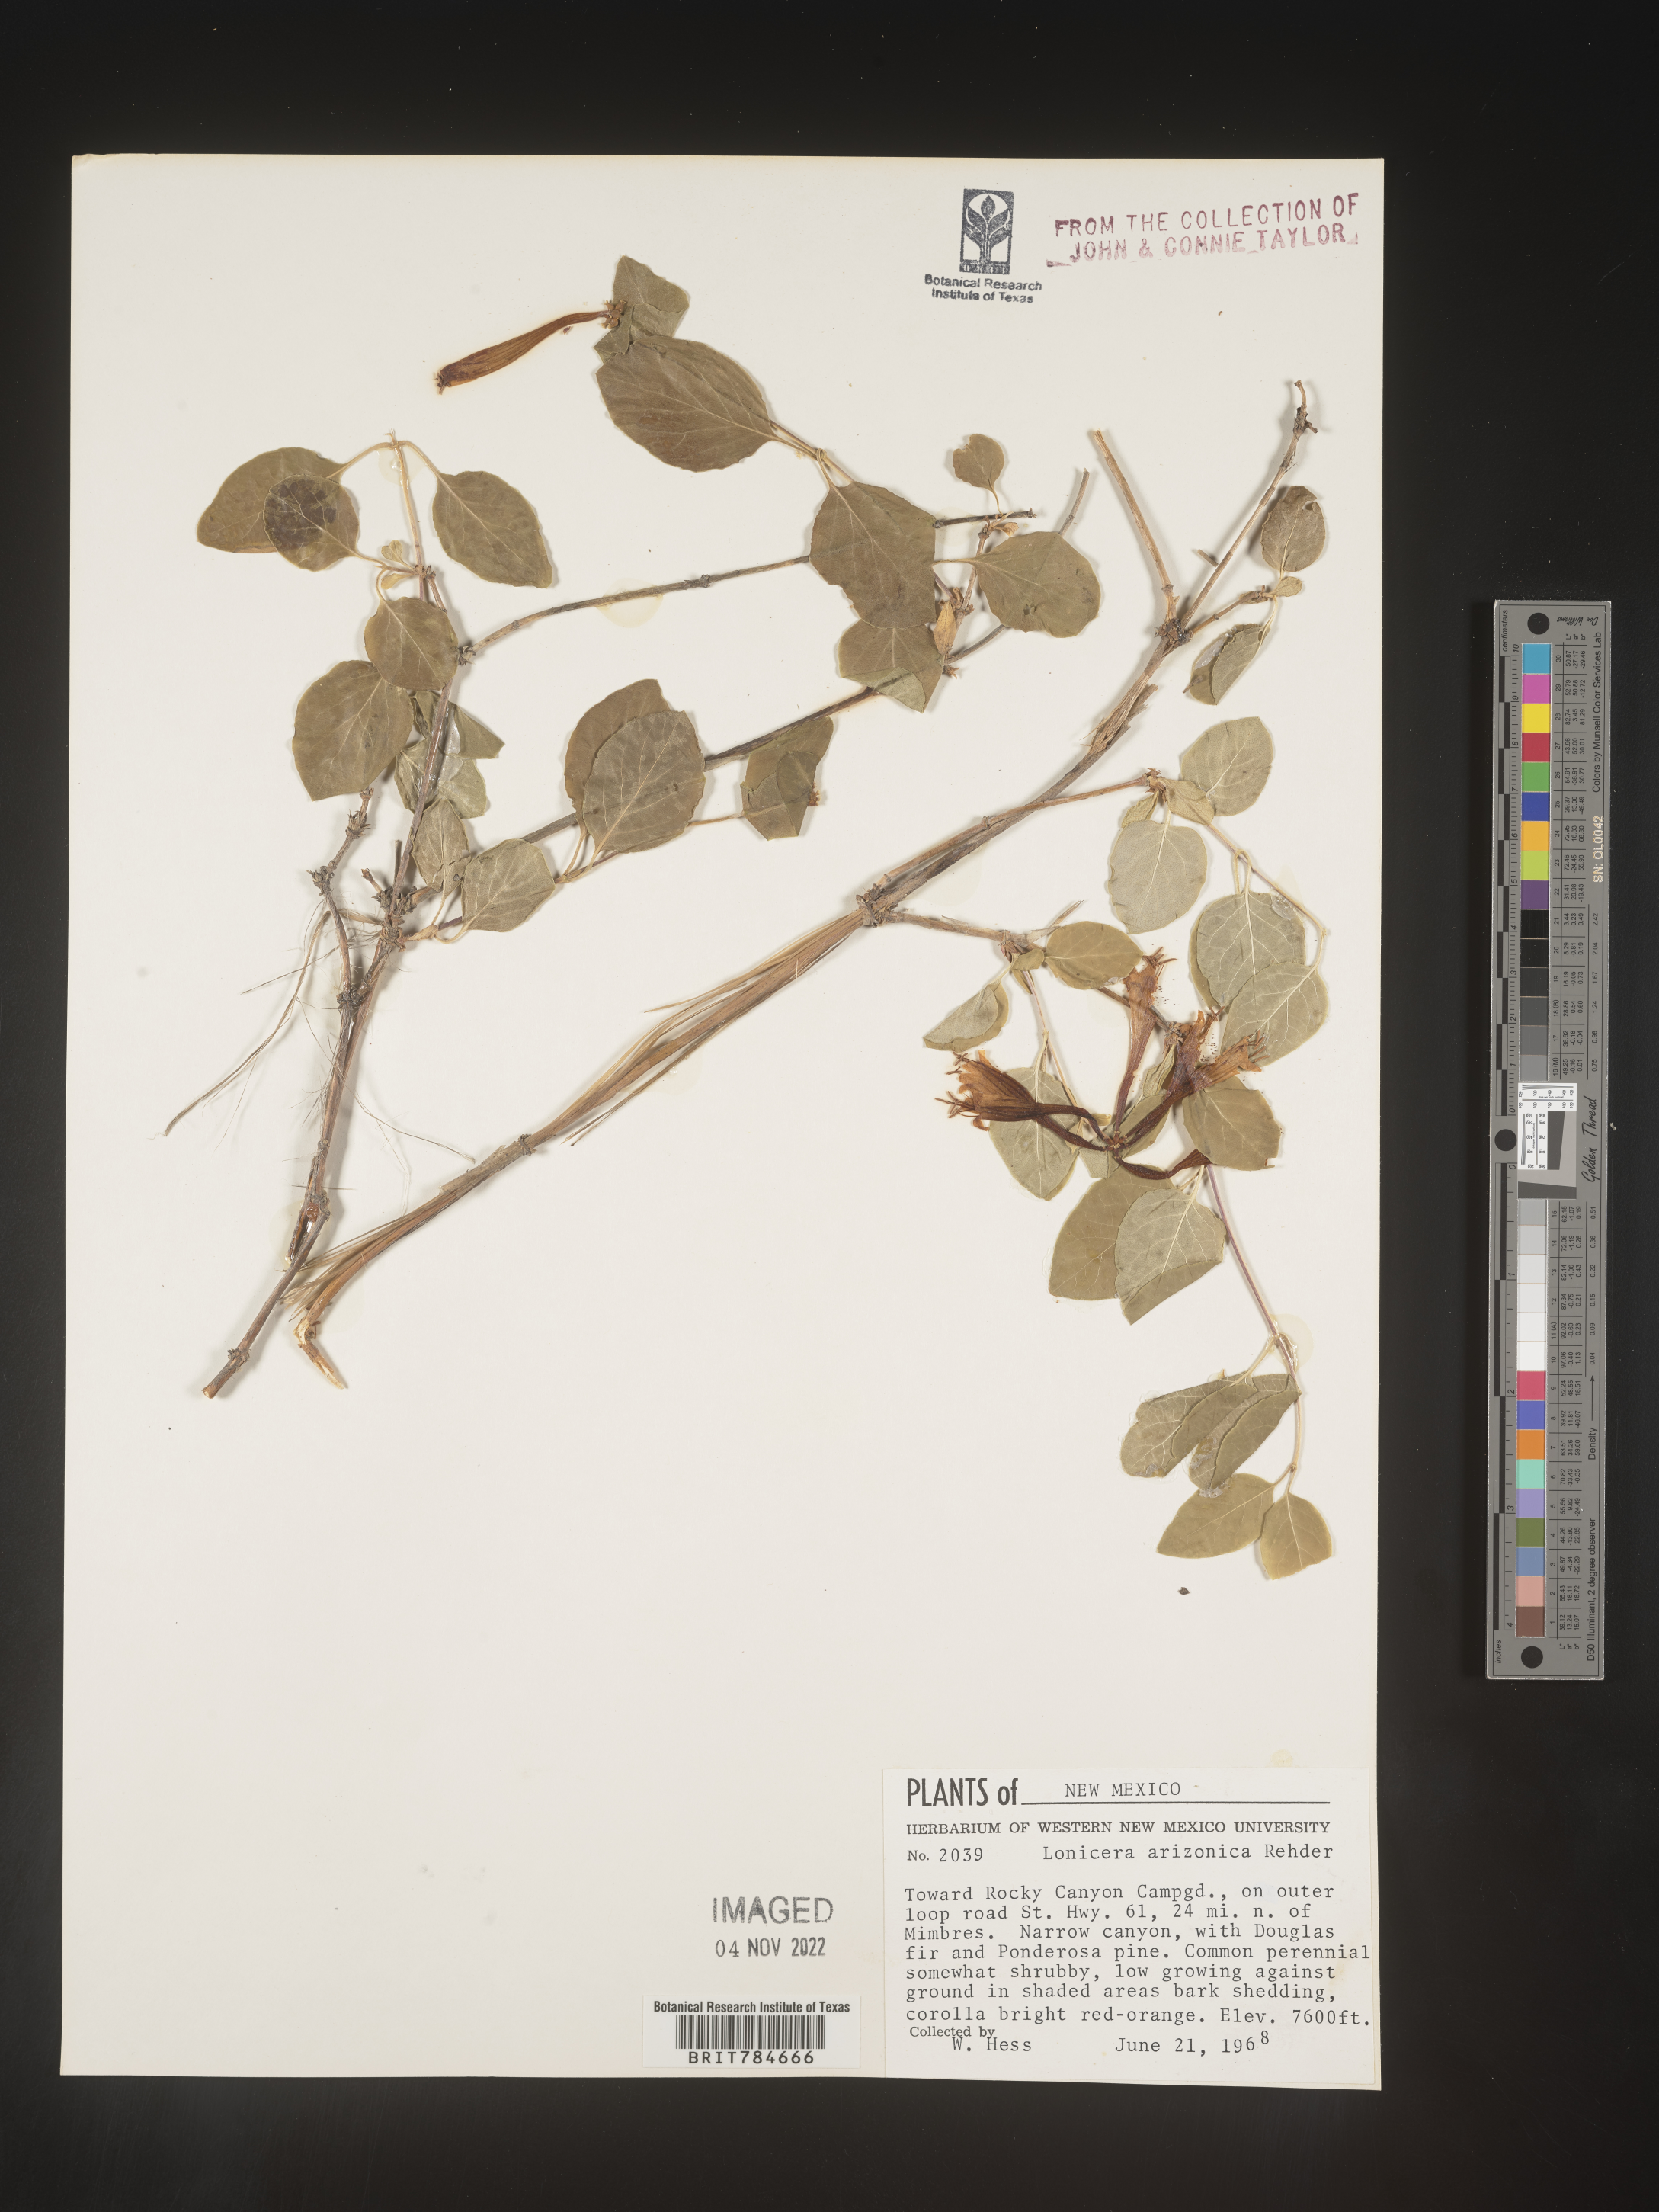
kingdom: Plantae
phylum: Tracheophyta
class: Magnoliopsida
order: Dipsacales
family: Caprifoliaceae
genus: Lonicera
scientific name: Lonicera arizonica
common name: Arizona honeysuckle
